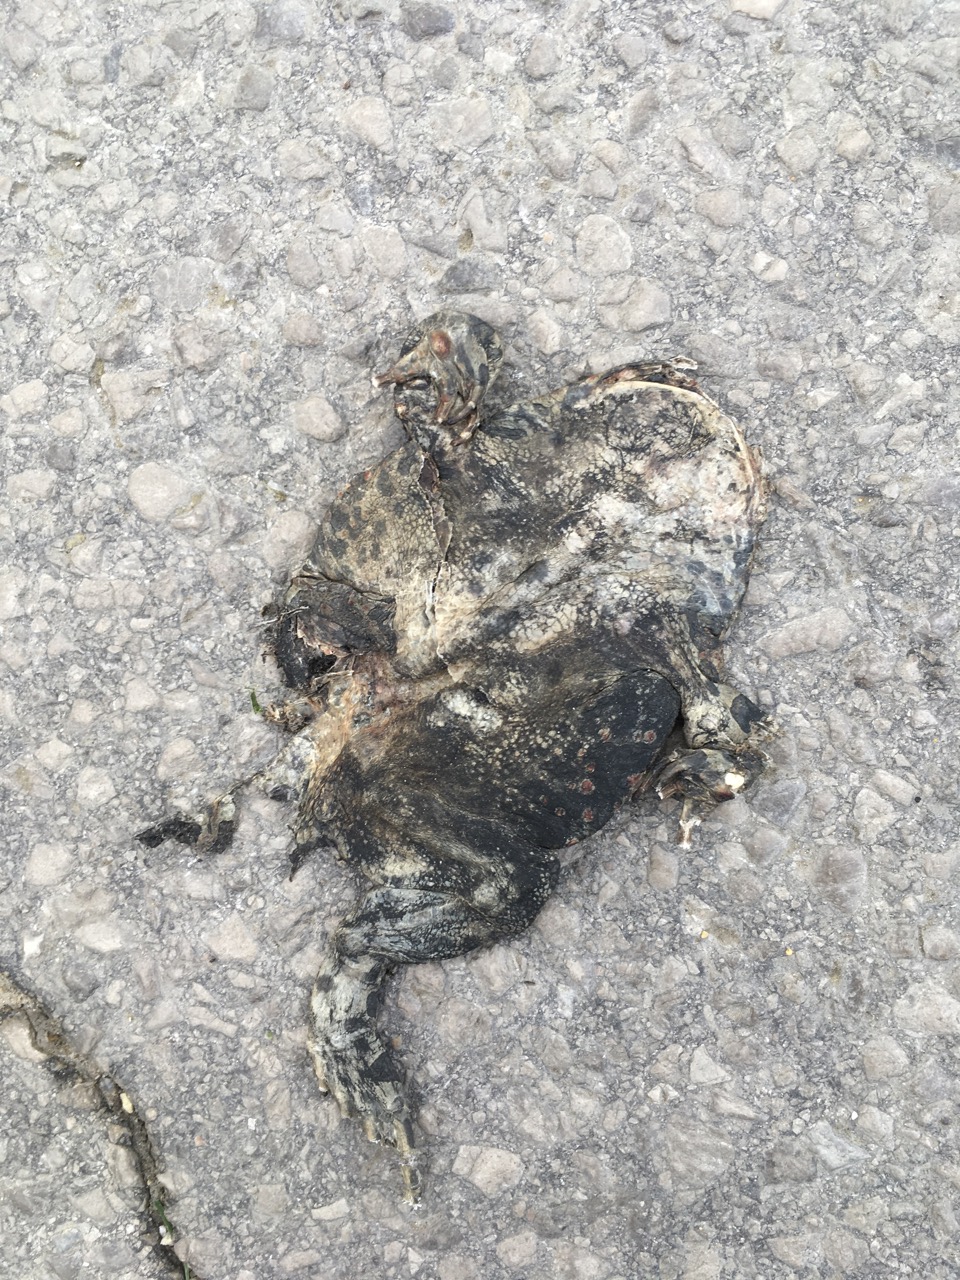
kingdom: Animalia
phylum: Chordata
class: Amphibia
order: Anura
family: Bufonidae
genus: Bufotes
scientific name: Bufotes viridis
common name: European green toad
